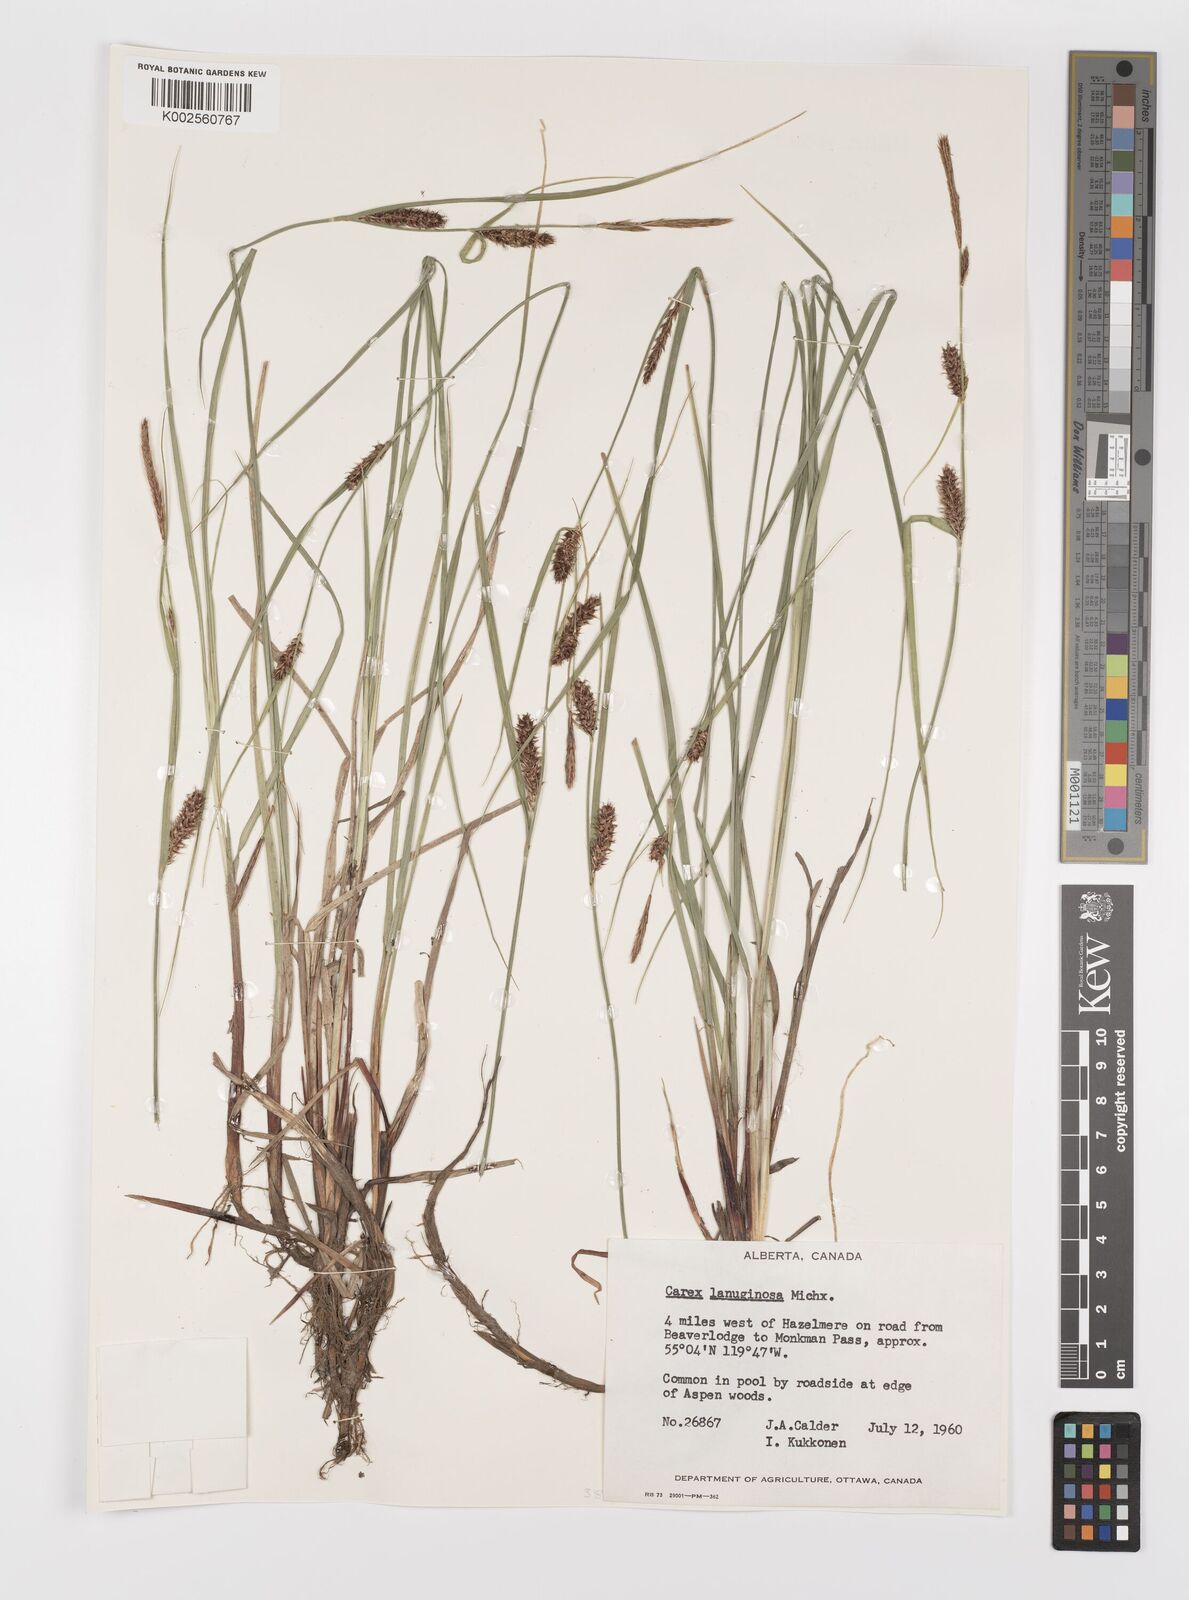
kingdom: Plantae
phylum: Tracheophyta
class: Liliopsida
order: Poales
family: Cyperaceae
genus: Carex
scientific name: Carex lasiocarpa
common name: Slender sedge
